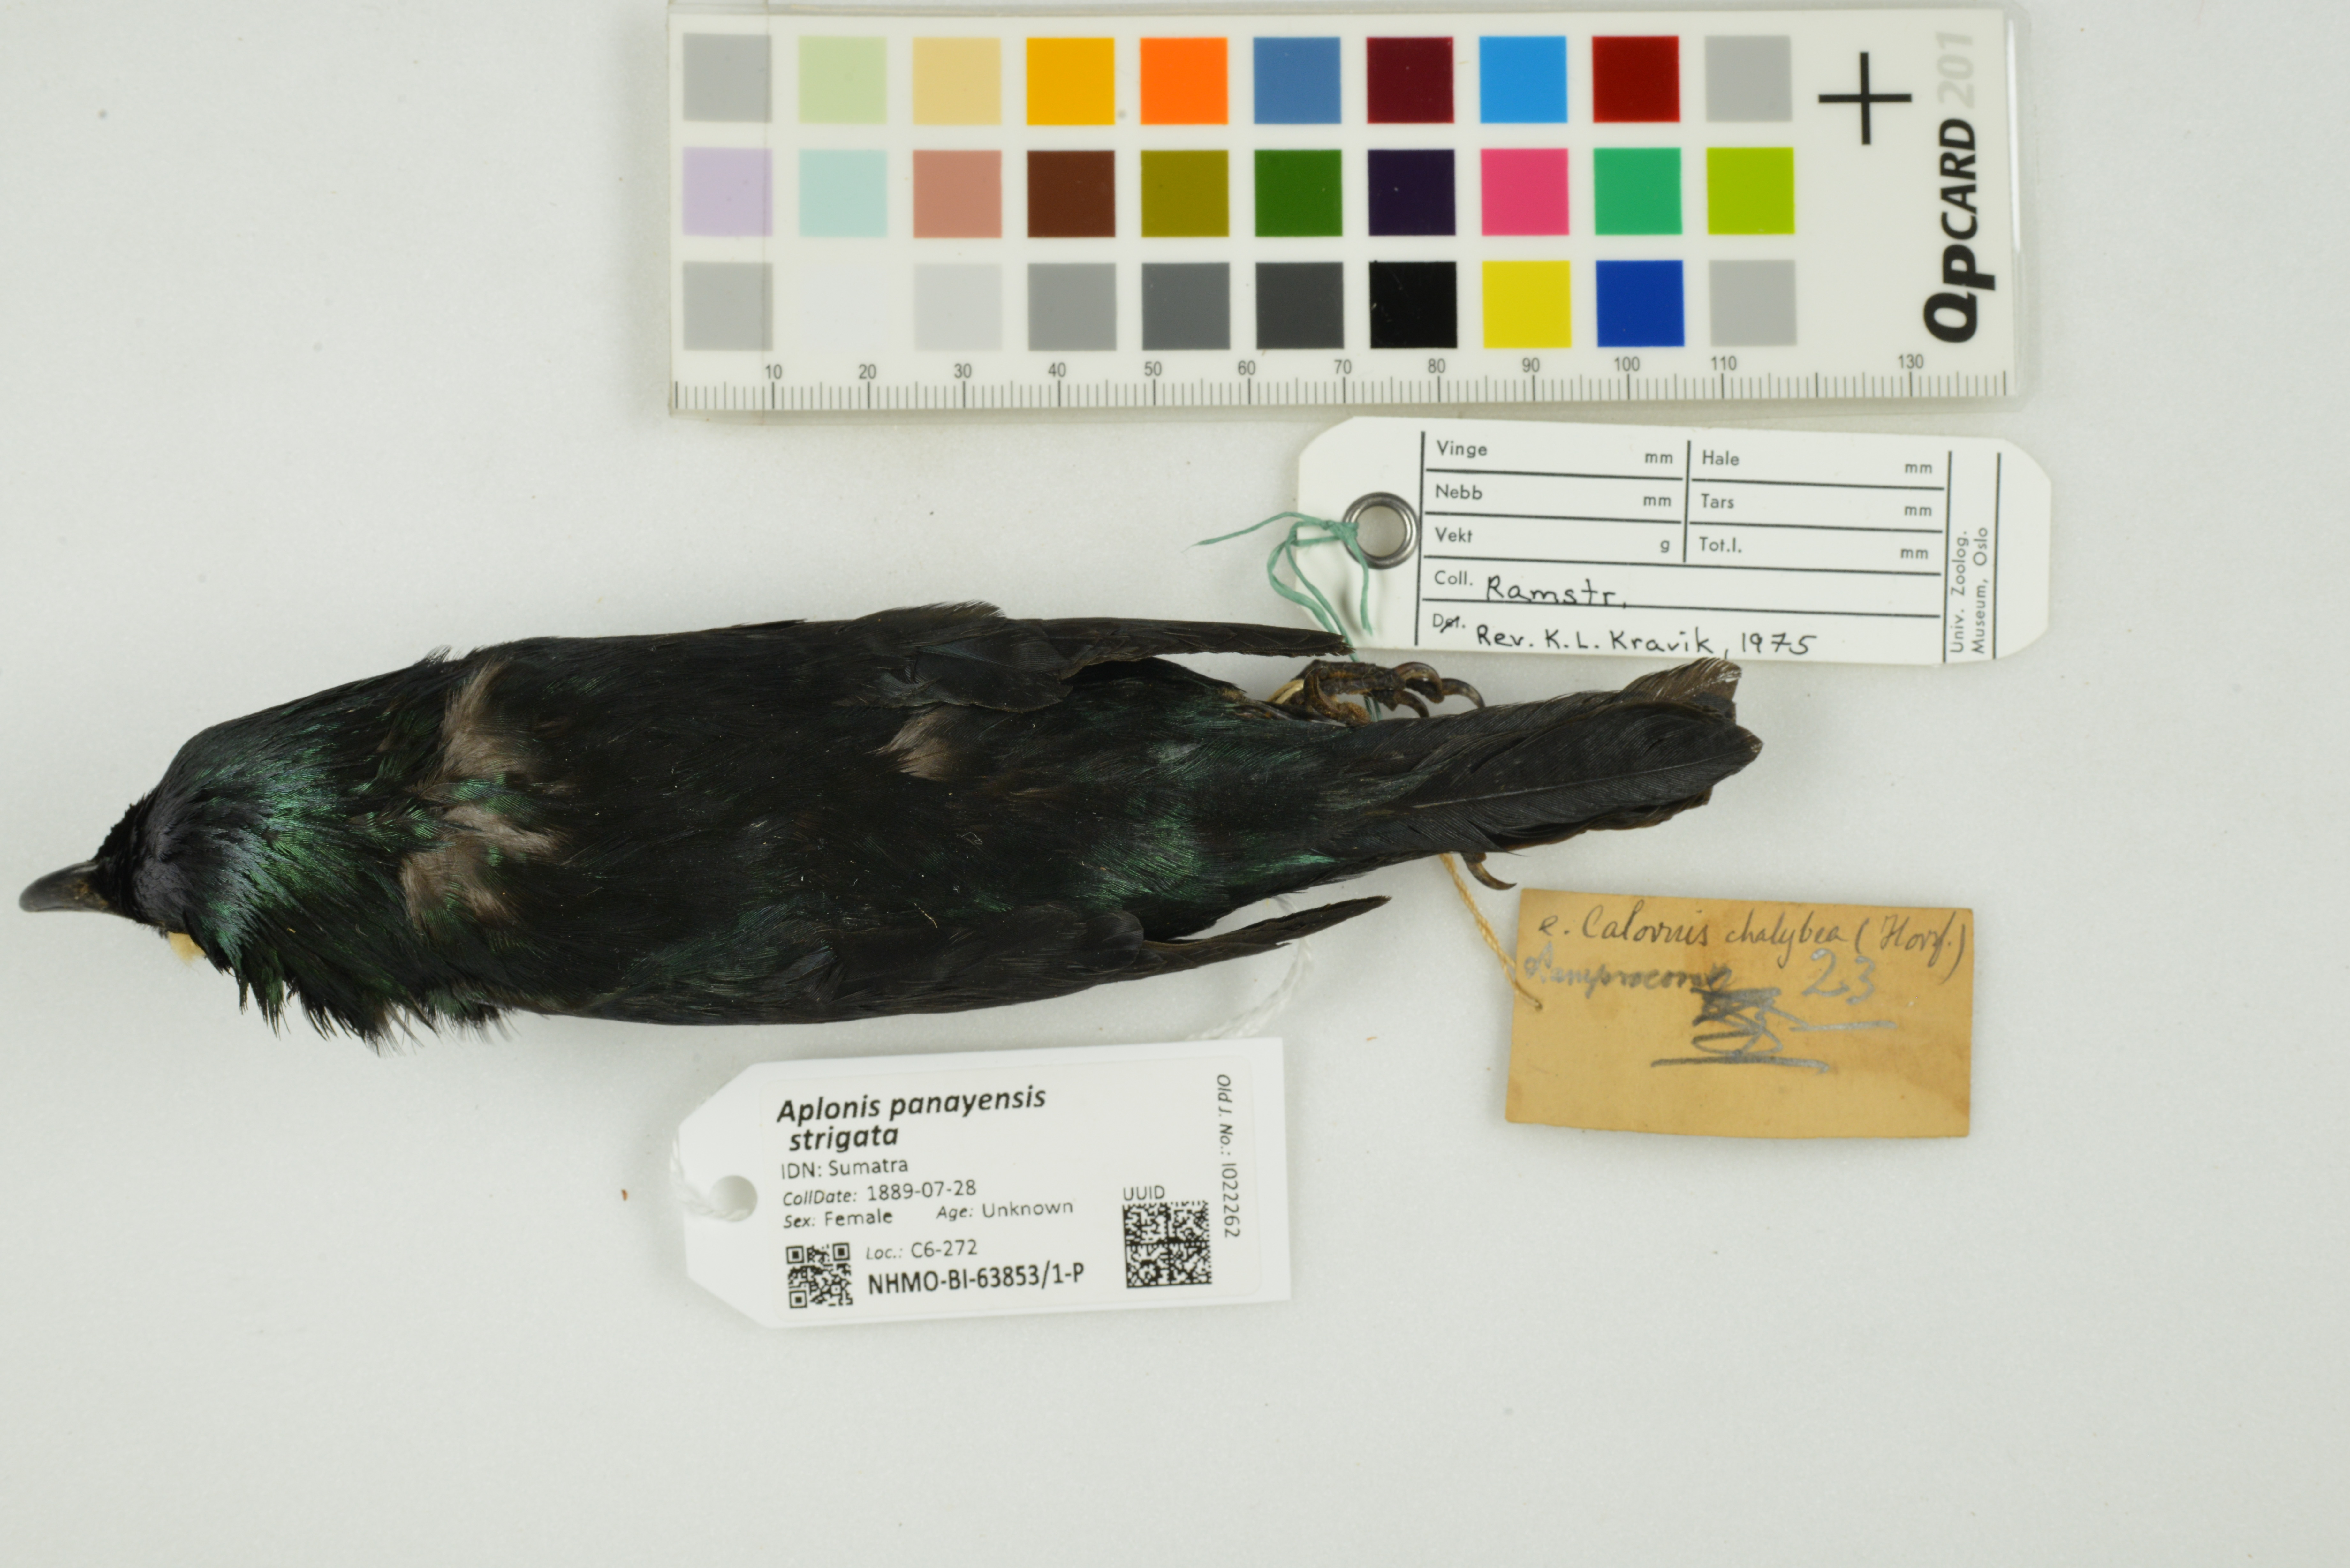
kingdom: Animalia
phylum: Chordata
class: Aves
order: Passeriformes
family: Sturnidae
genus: Aplonis
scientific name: Aplonis panayensis
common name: Asian glossy starling
